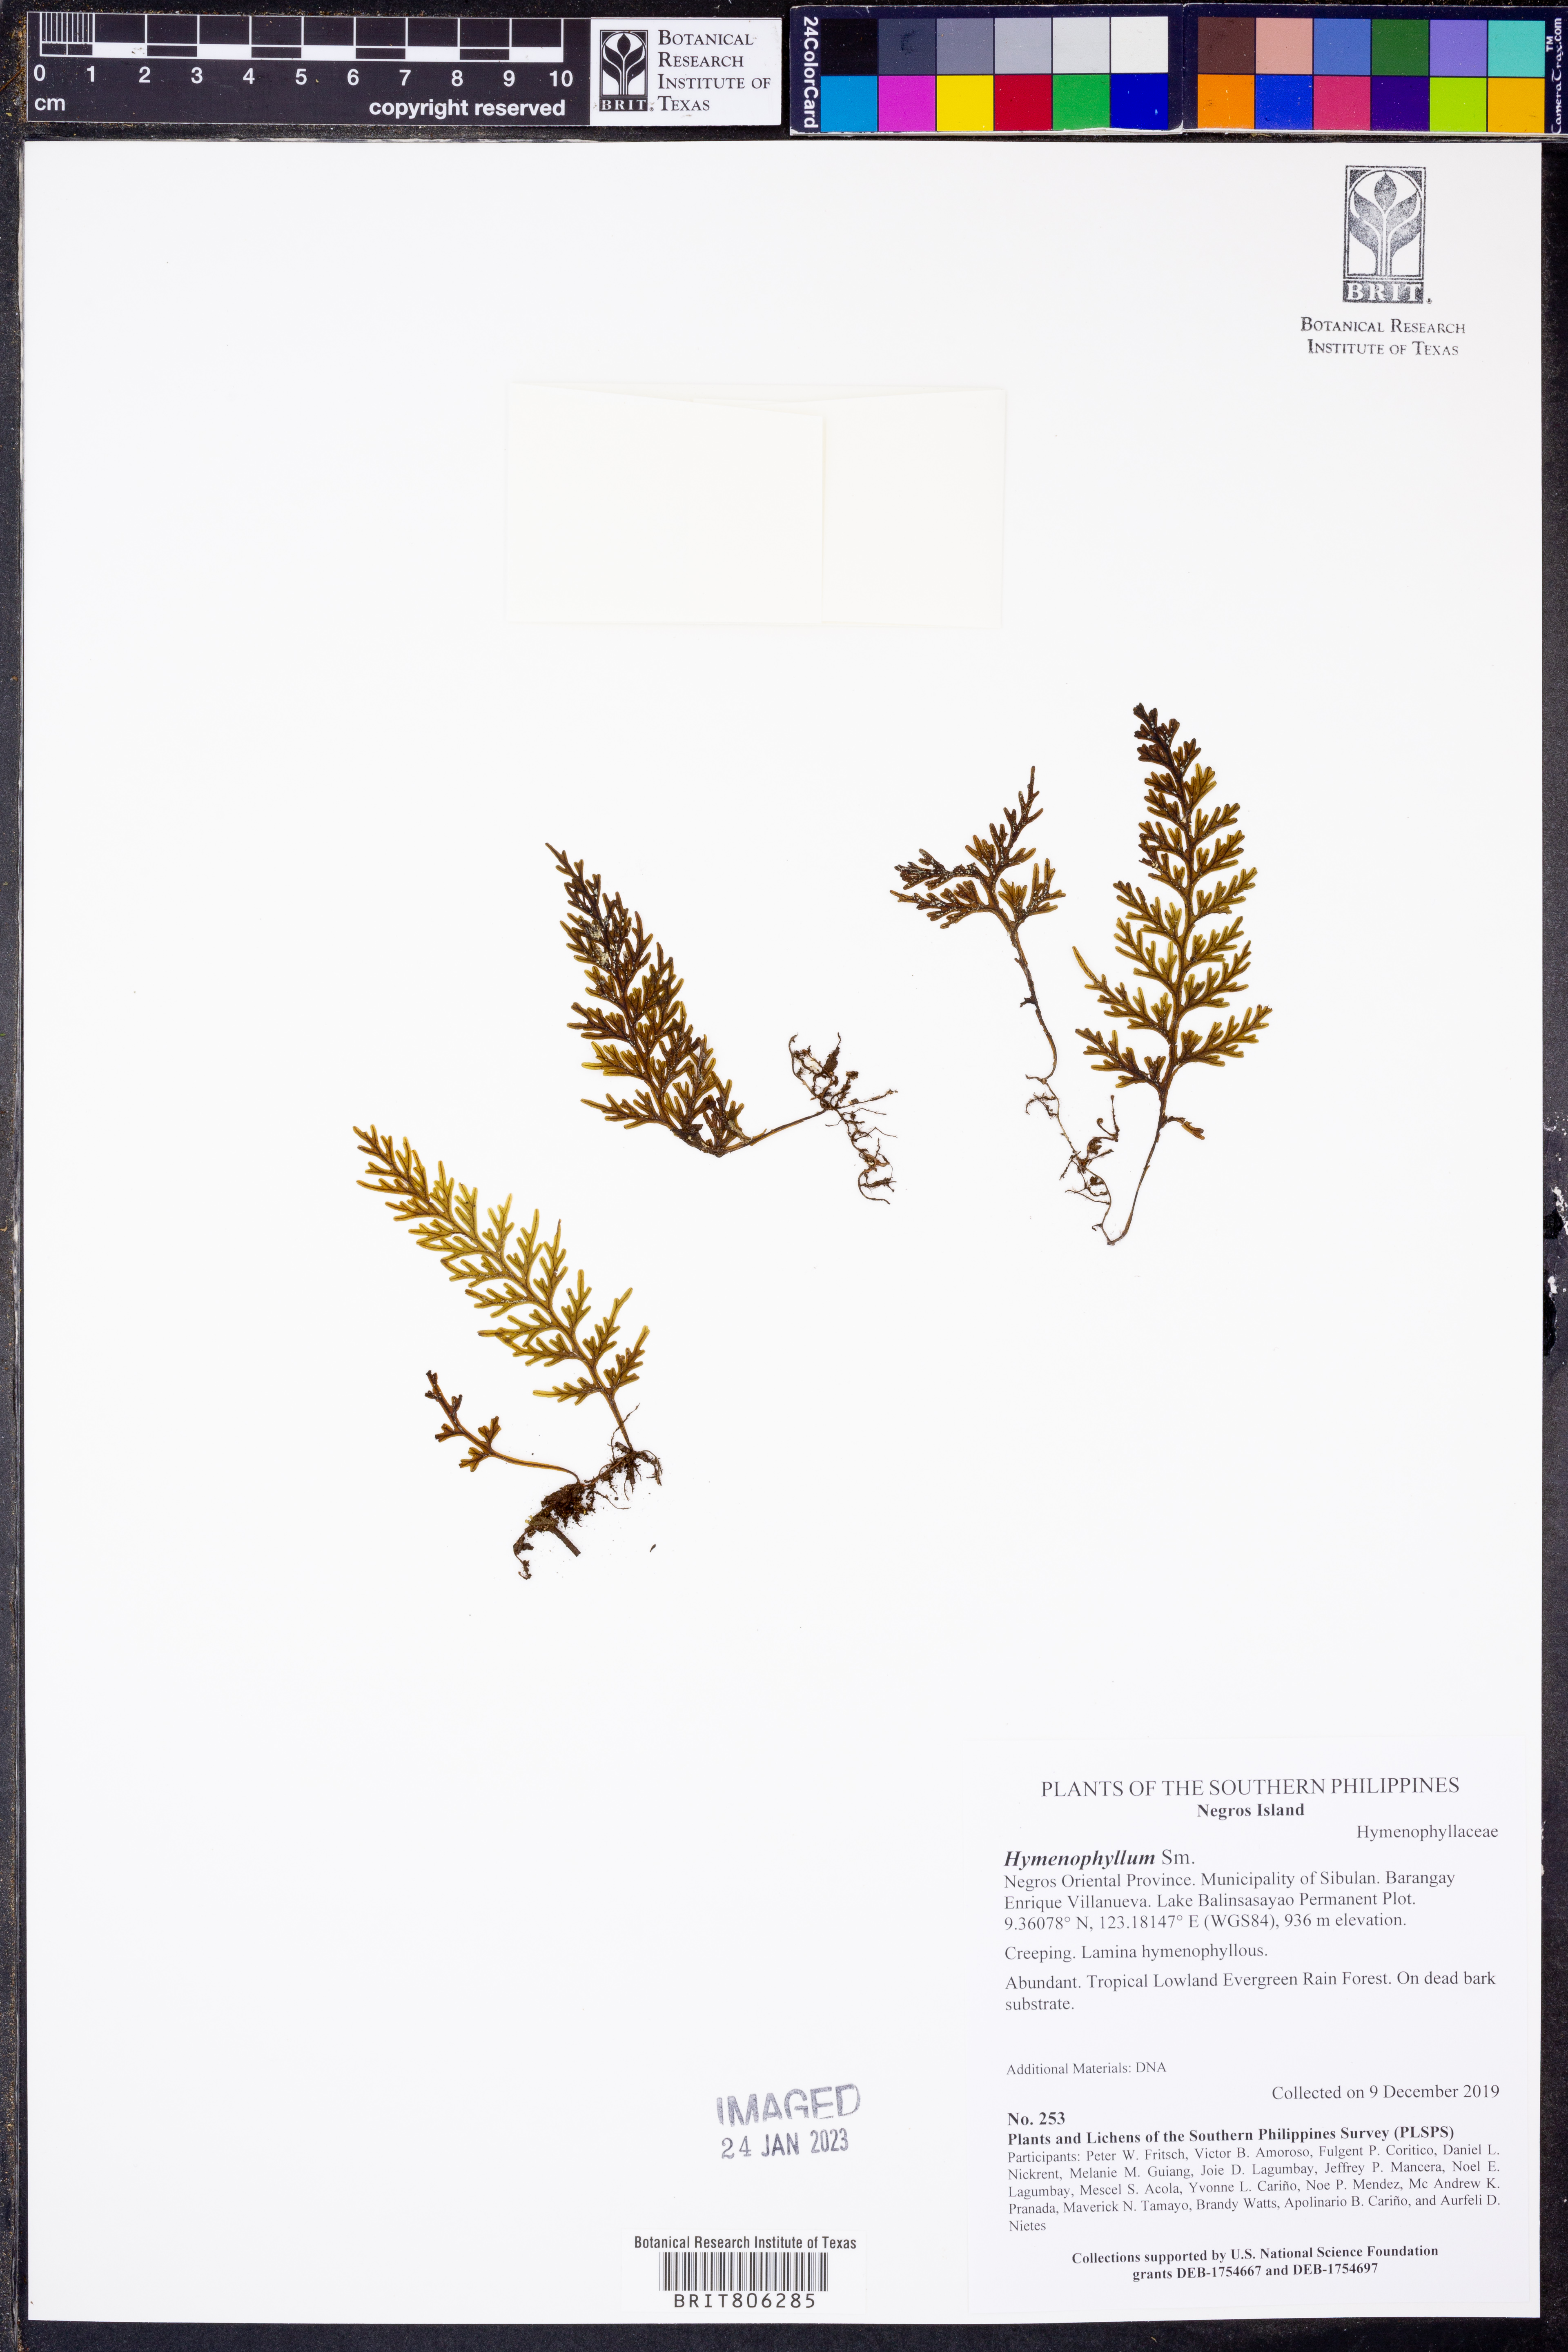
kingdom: Plantae
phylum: Tracheophyta
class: Polypodiopsida
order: Hymenophyllales
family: Hymenophyllaceae
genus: Hymenophyllum
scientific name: Hymenophyllum
